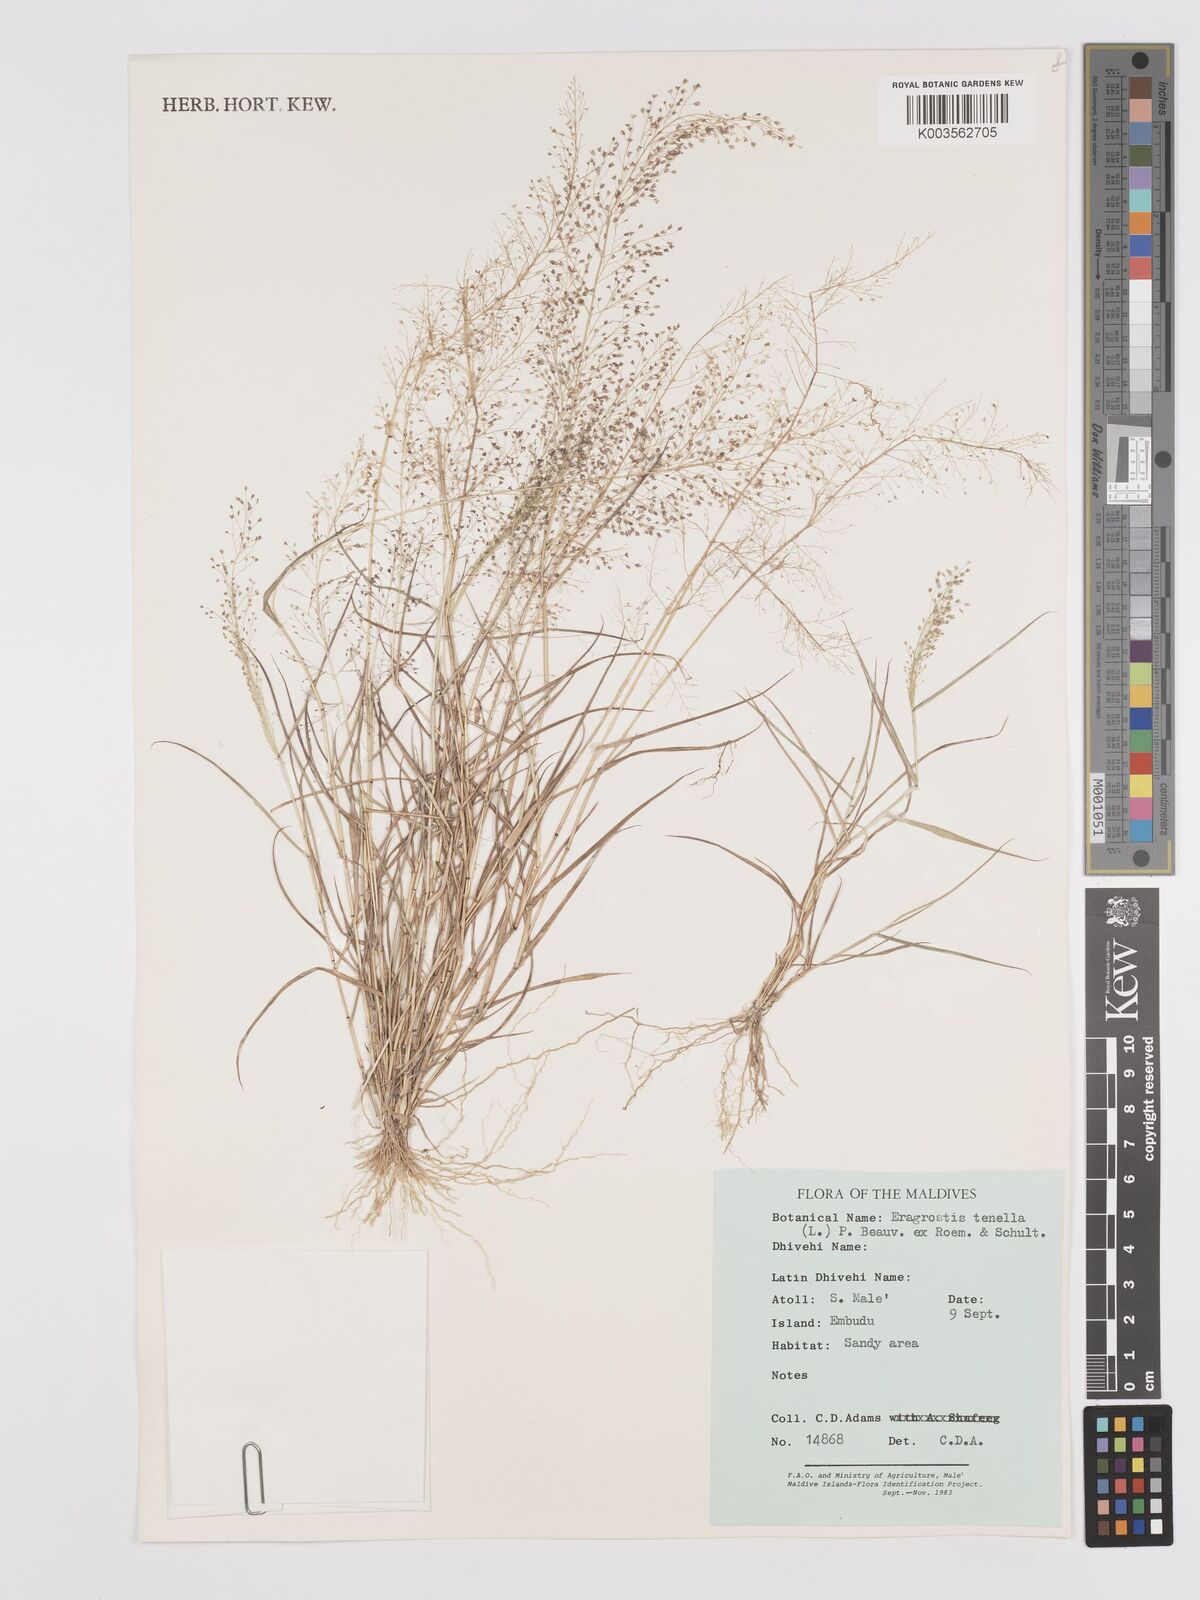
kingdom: Plantae
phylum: Tracheophyta
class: Liliopsida
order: Poales
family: Poaceae
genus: Eragrostis
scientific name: Eragrostis tenella
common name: Japanese lovegrass
